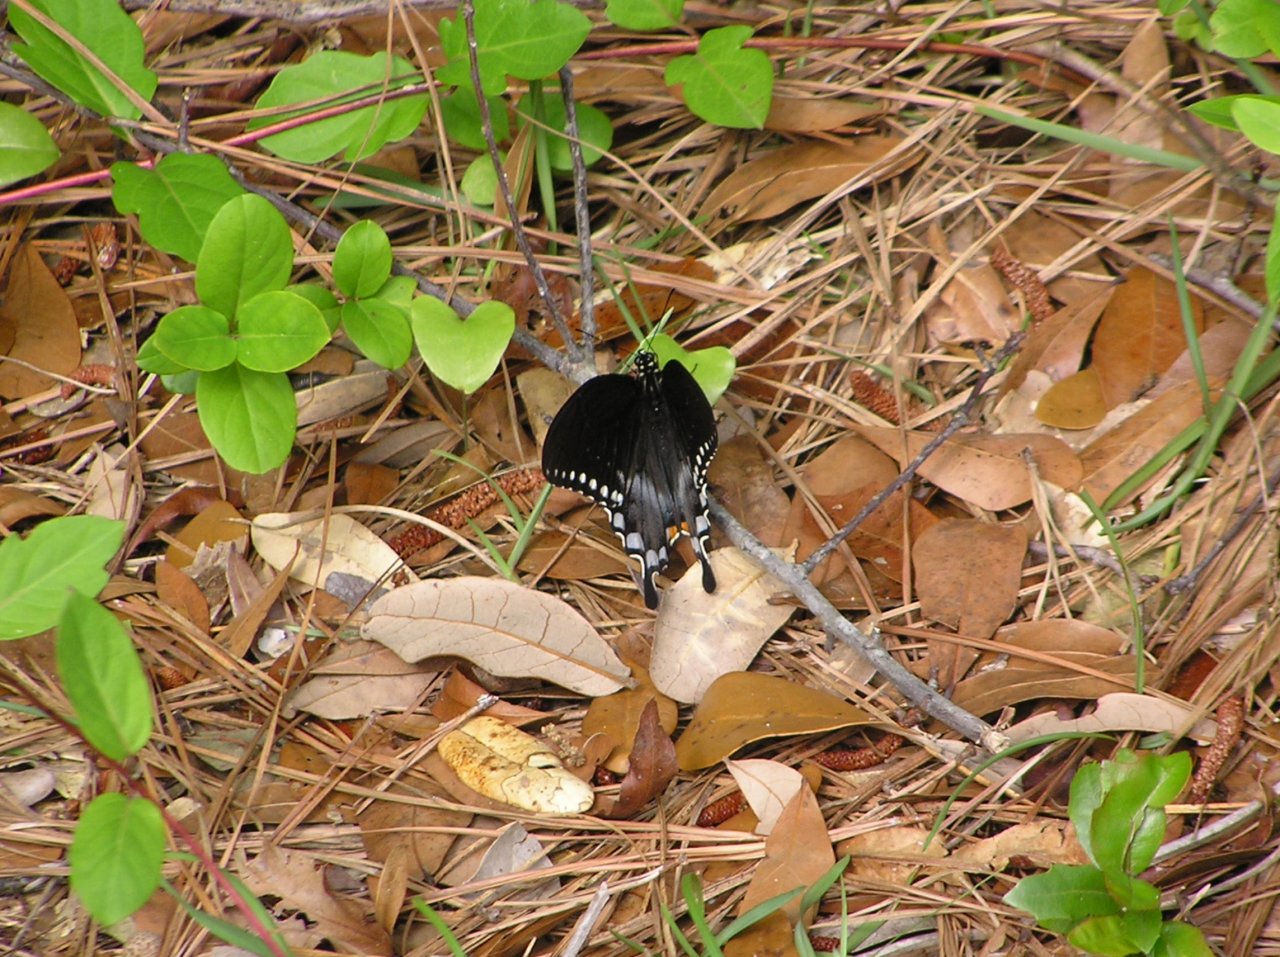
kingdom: Animalia
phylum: Arthropoda
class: Insecta
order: Lepidoptera
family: Papilionidae
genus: Pterourus
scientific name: Pterourus troilus
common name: Spicebush Swallowtail
